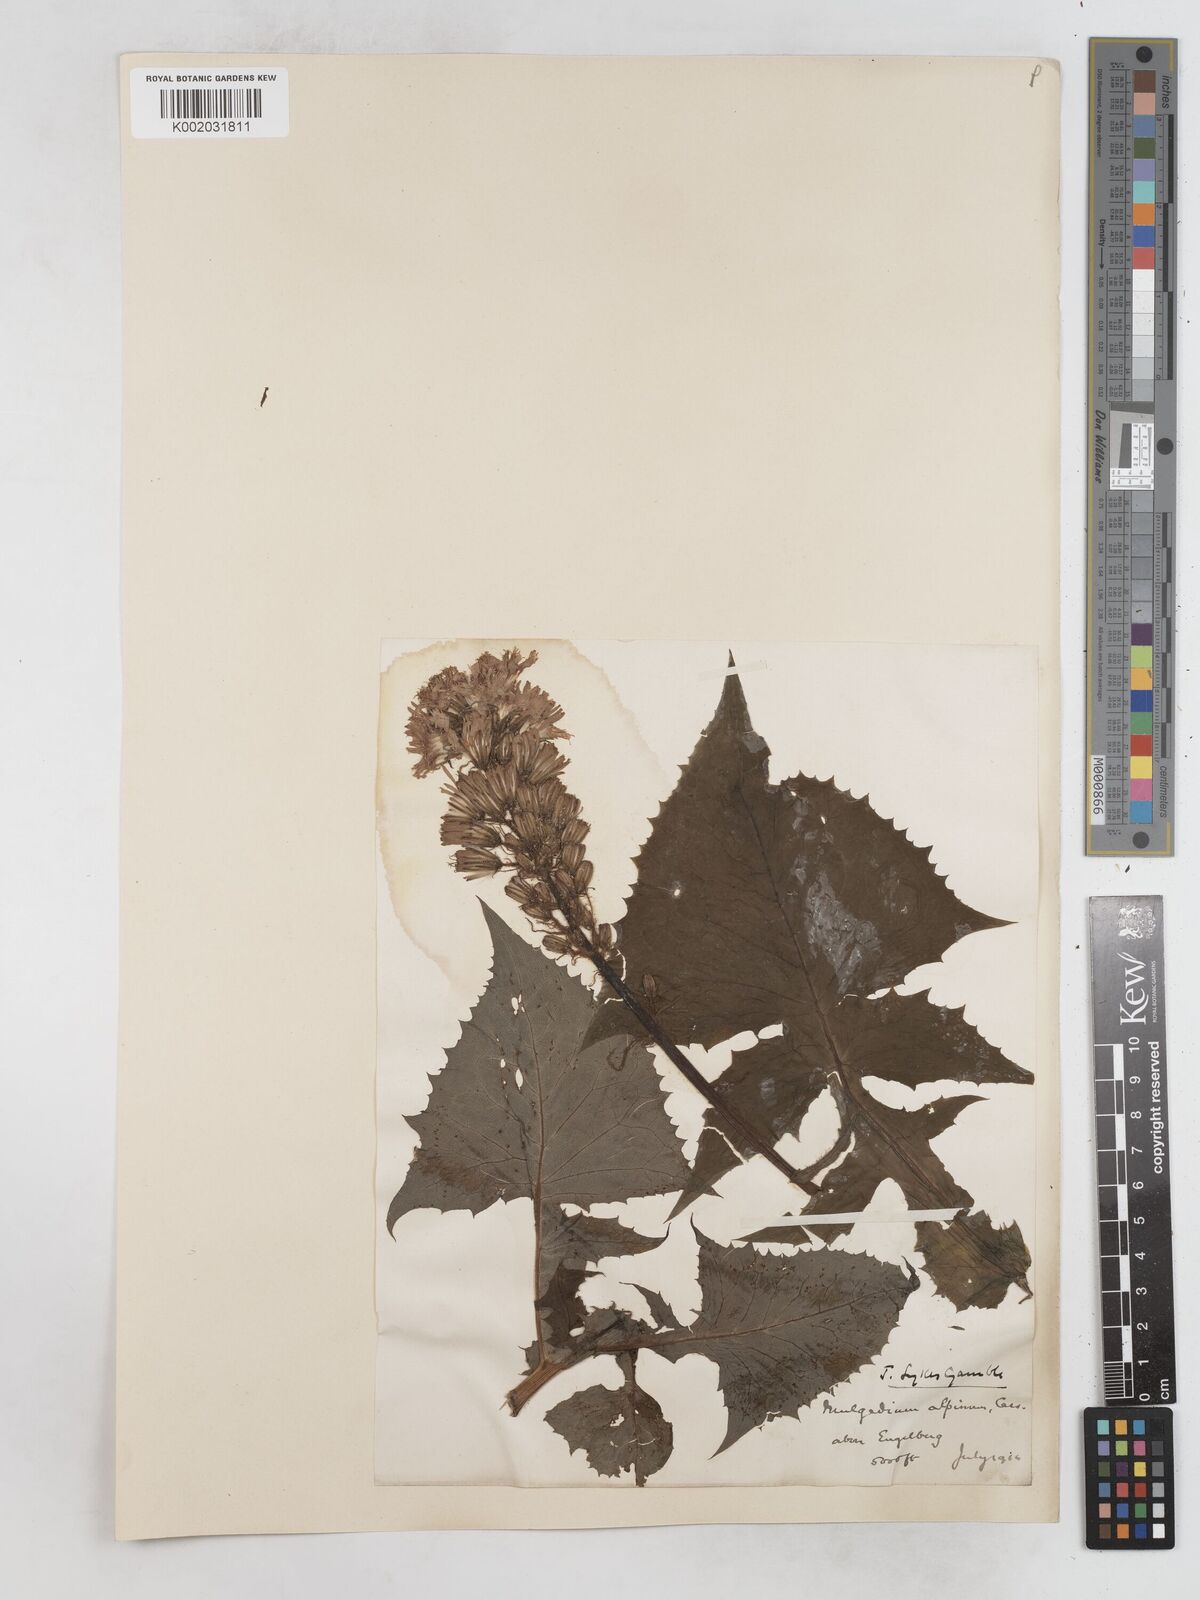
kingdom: Plantae
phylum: Tracheophyta
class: Magnoliopsida
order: Asterales
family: Asteraceae
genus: Cicerbita
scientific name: Cicerbita alpina
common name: Alpine blue-sow-thistle
